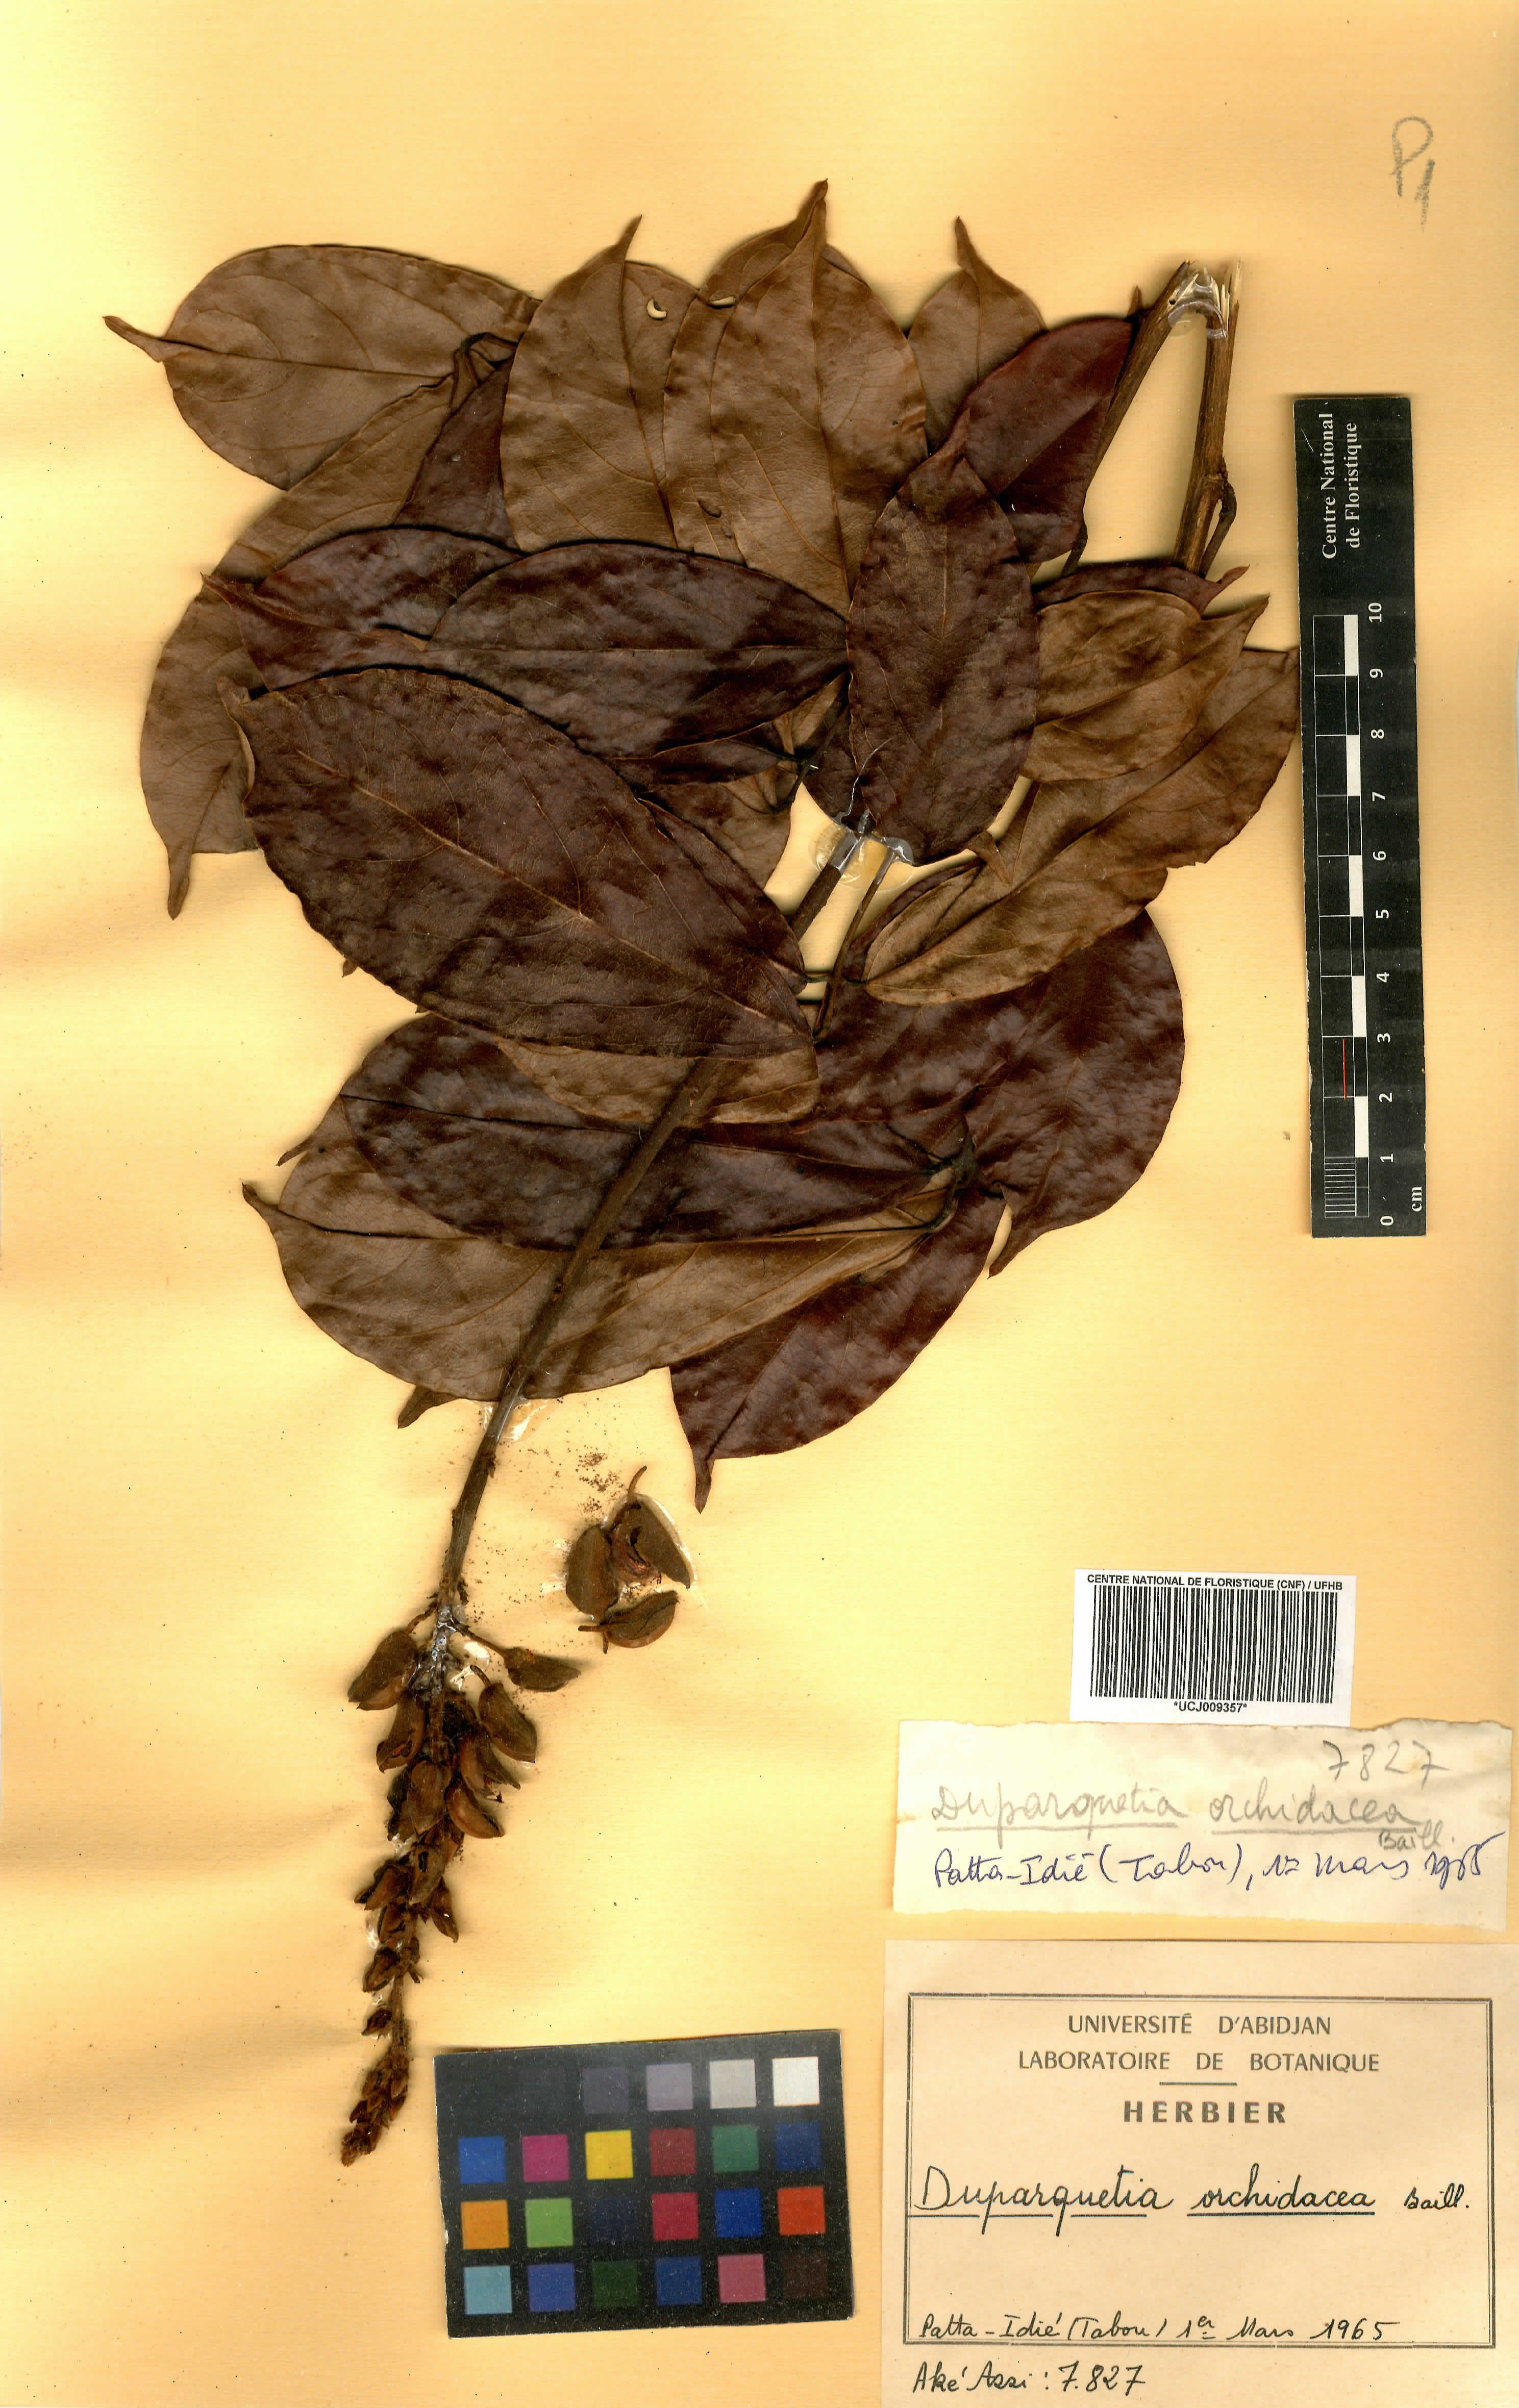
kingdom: Plantae
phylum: Tracheophyta
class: Magnoliopsida
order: Fabales
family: Fabaceae
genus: Duparquetia
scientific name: Duparquetia orchidacea
